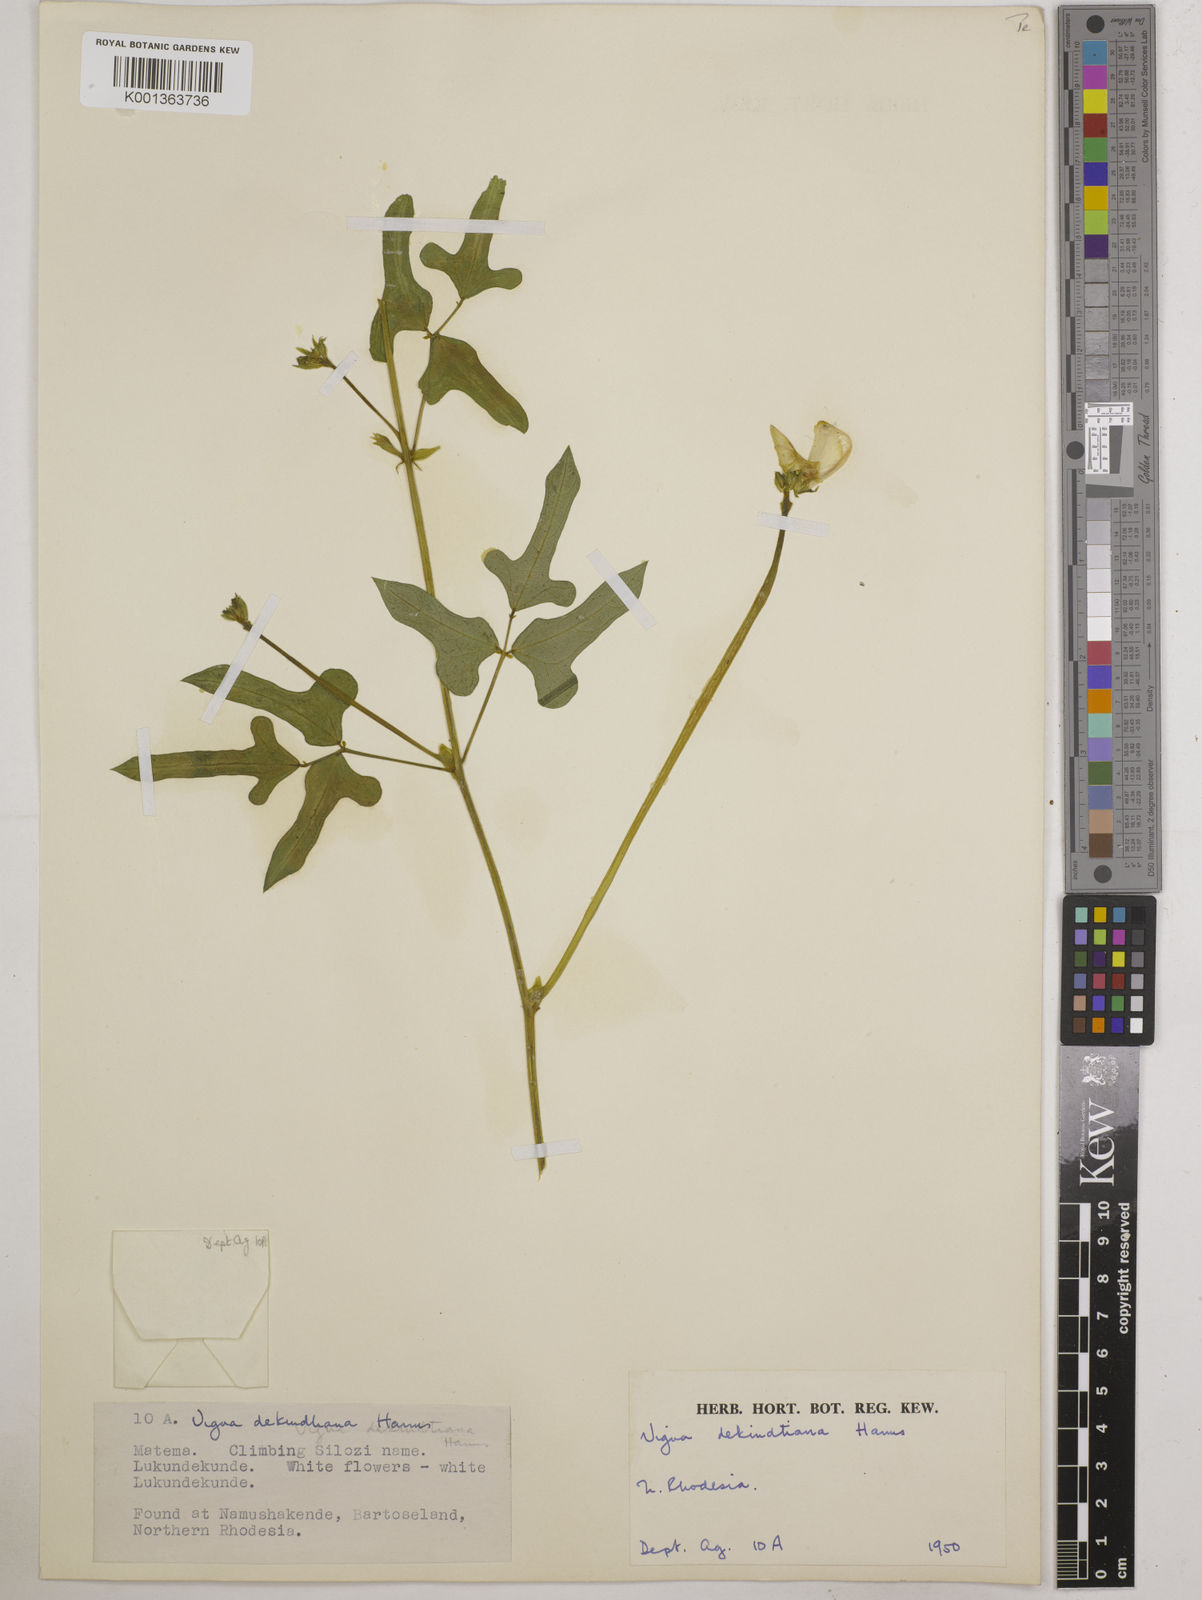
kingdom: Plantae
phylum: Tracheophyta
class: Magnoliopsida
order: Fabales
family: Fabaceae
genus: Vigna
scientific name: Vigna unguiculata
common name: Cowpea
